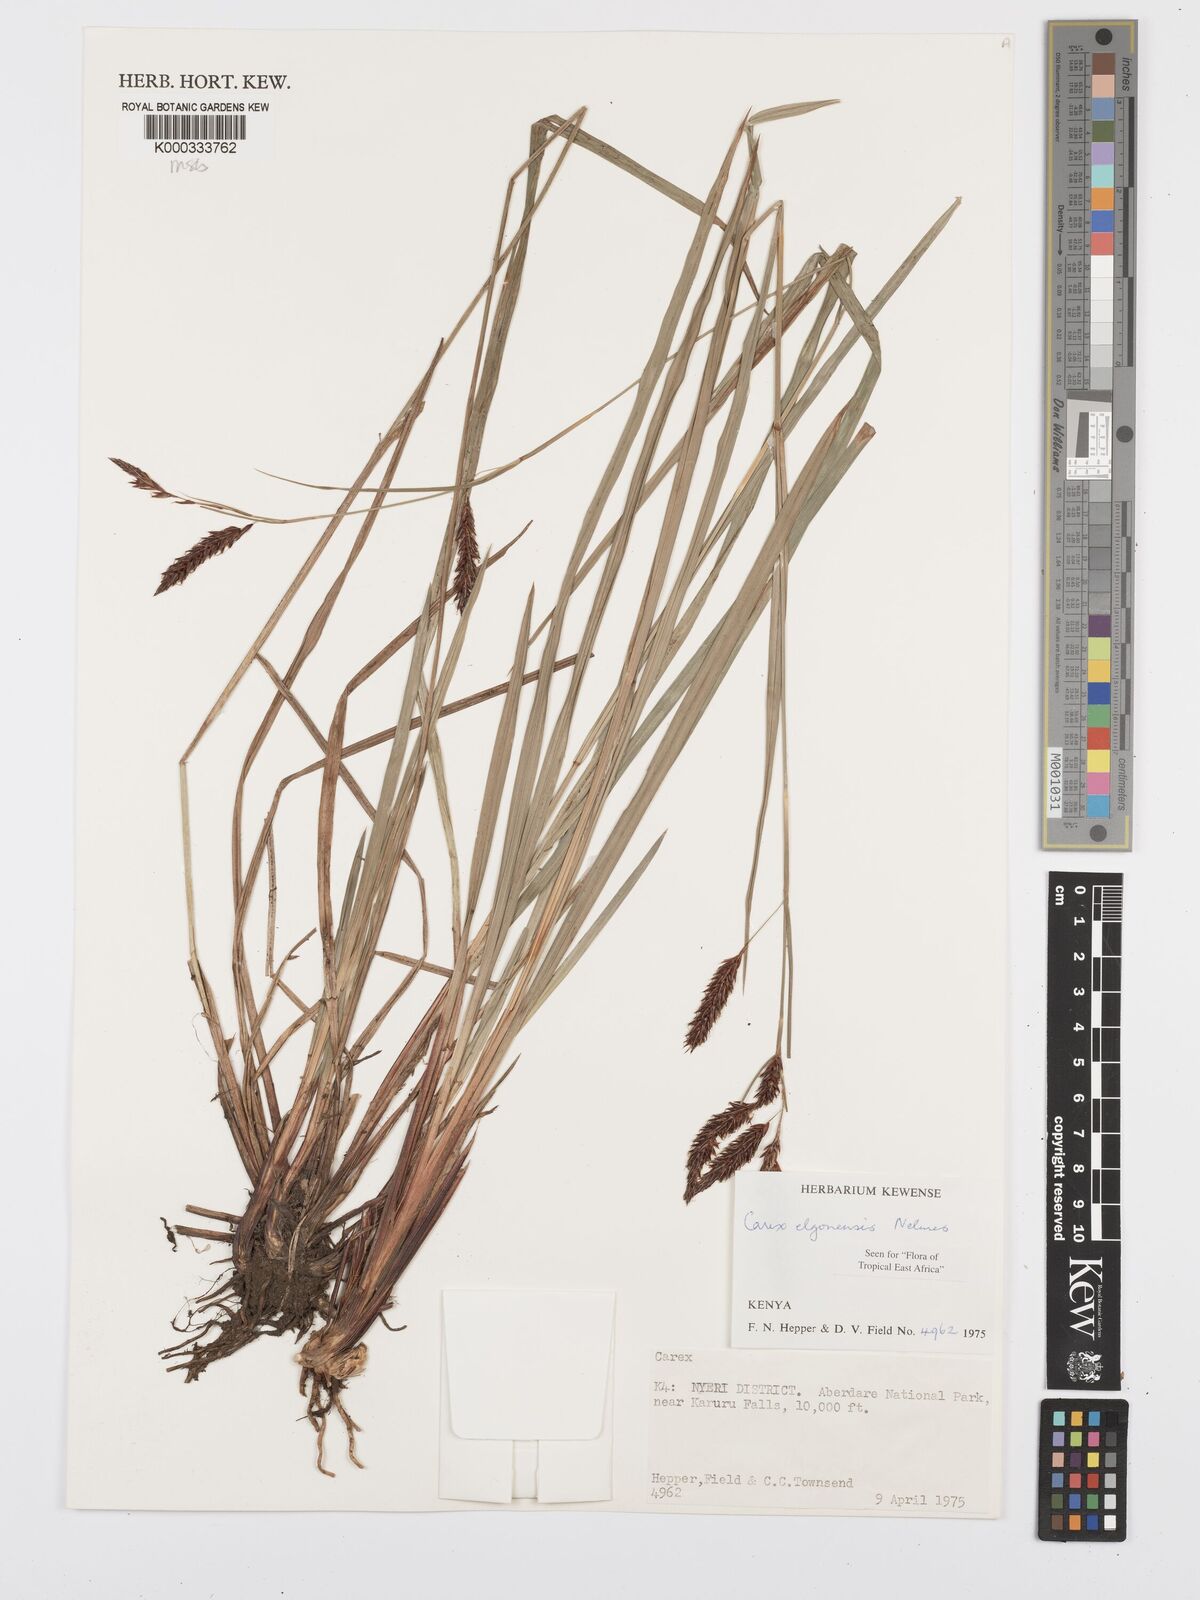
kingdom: Plantae
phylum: Tracheophyta
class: Liliopsida
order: Poales
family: Cyperaceae
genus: Carex
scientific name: Carex elgonensis
